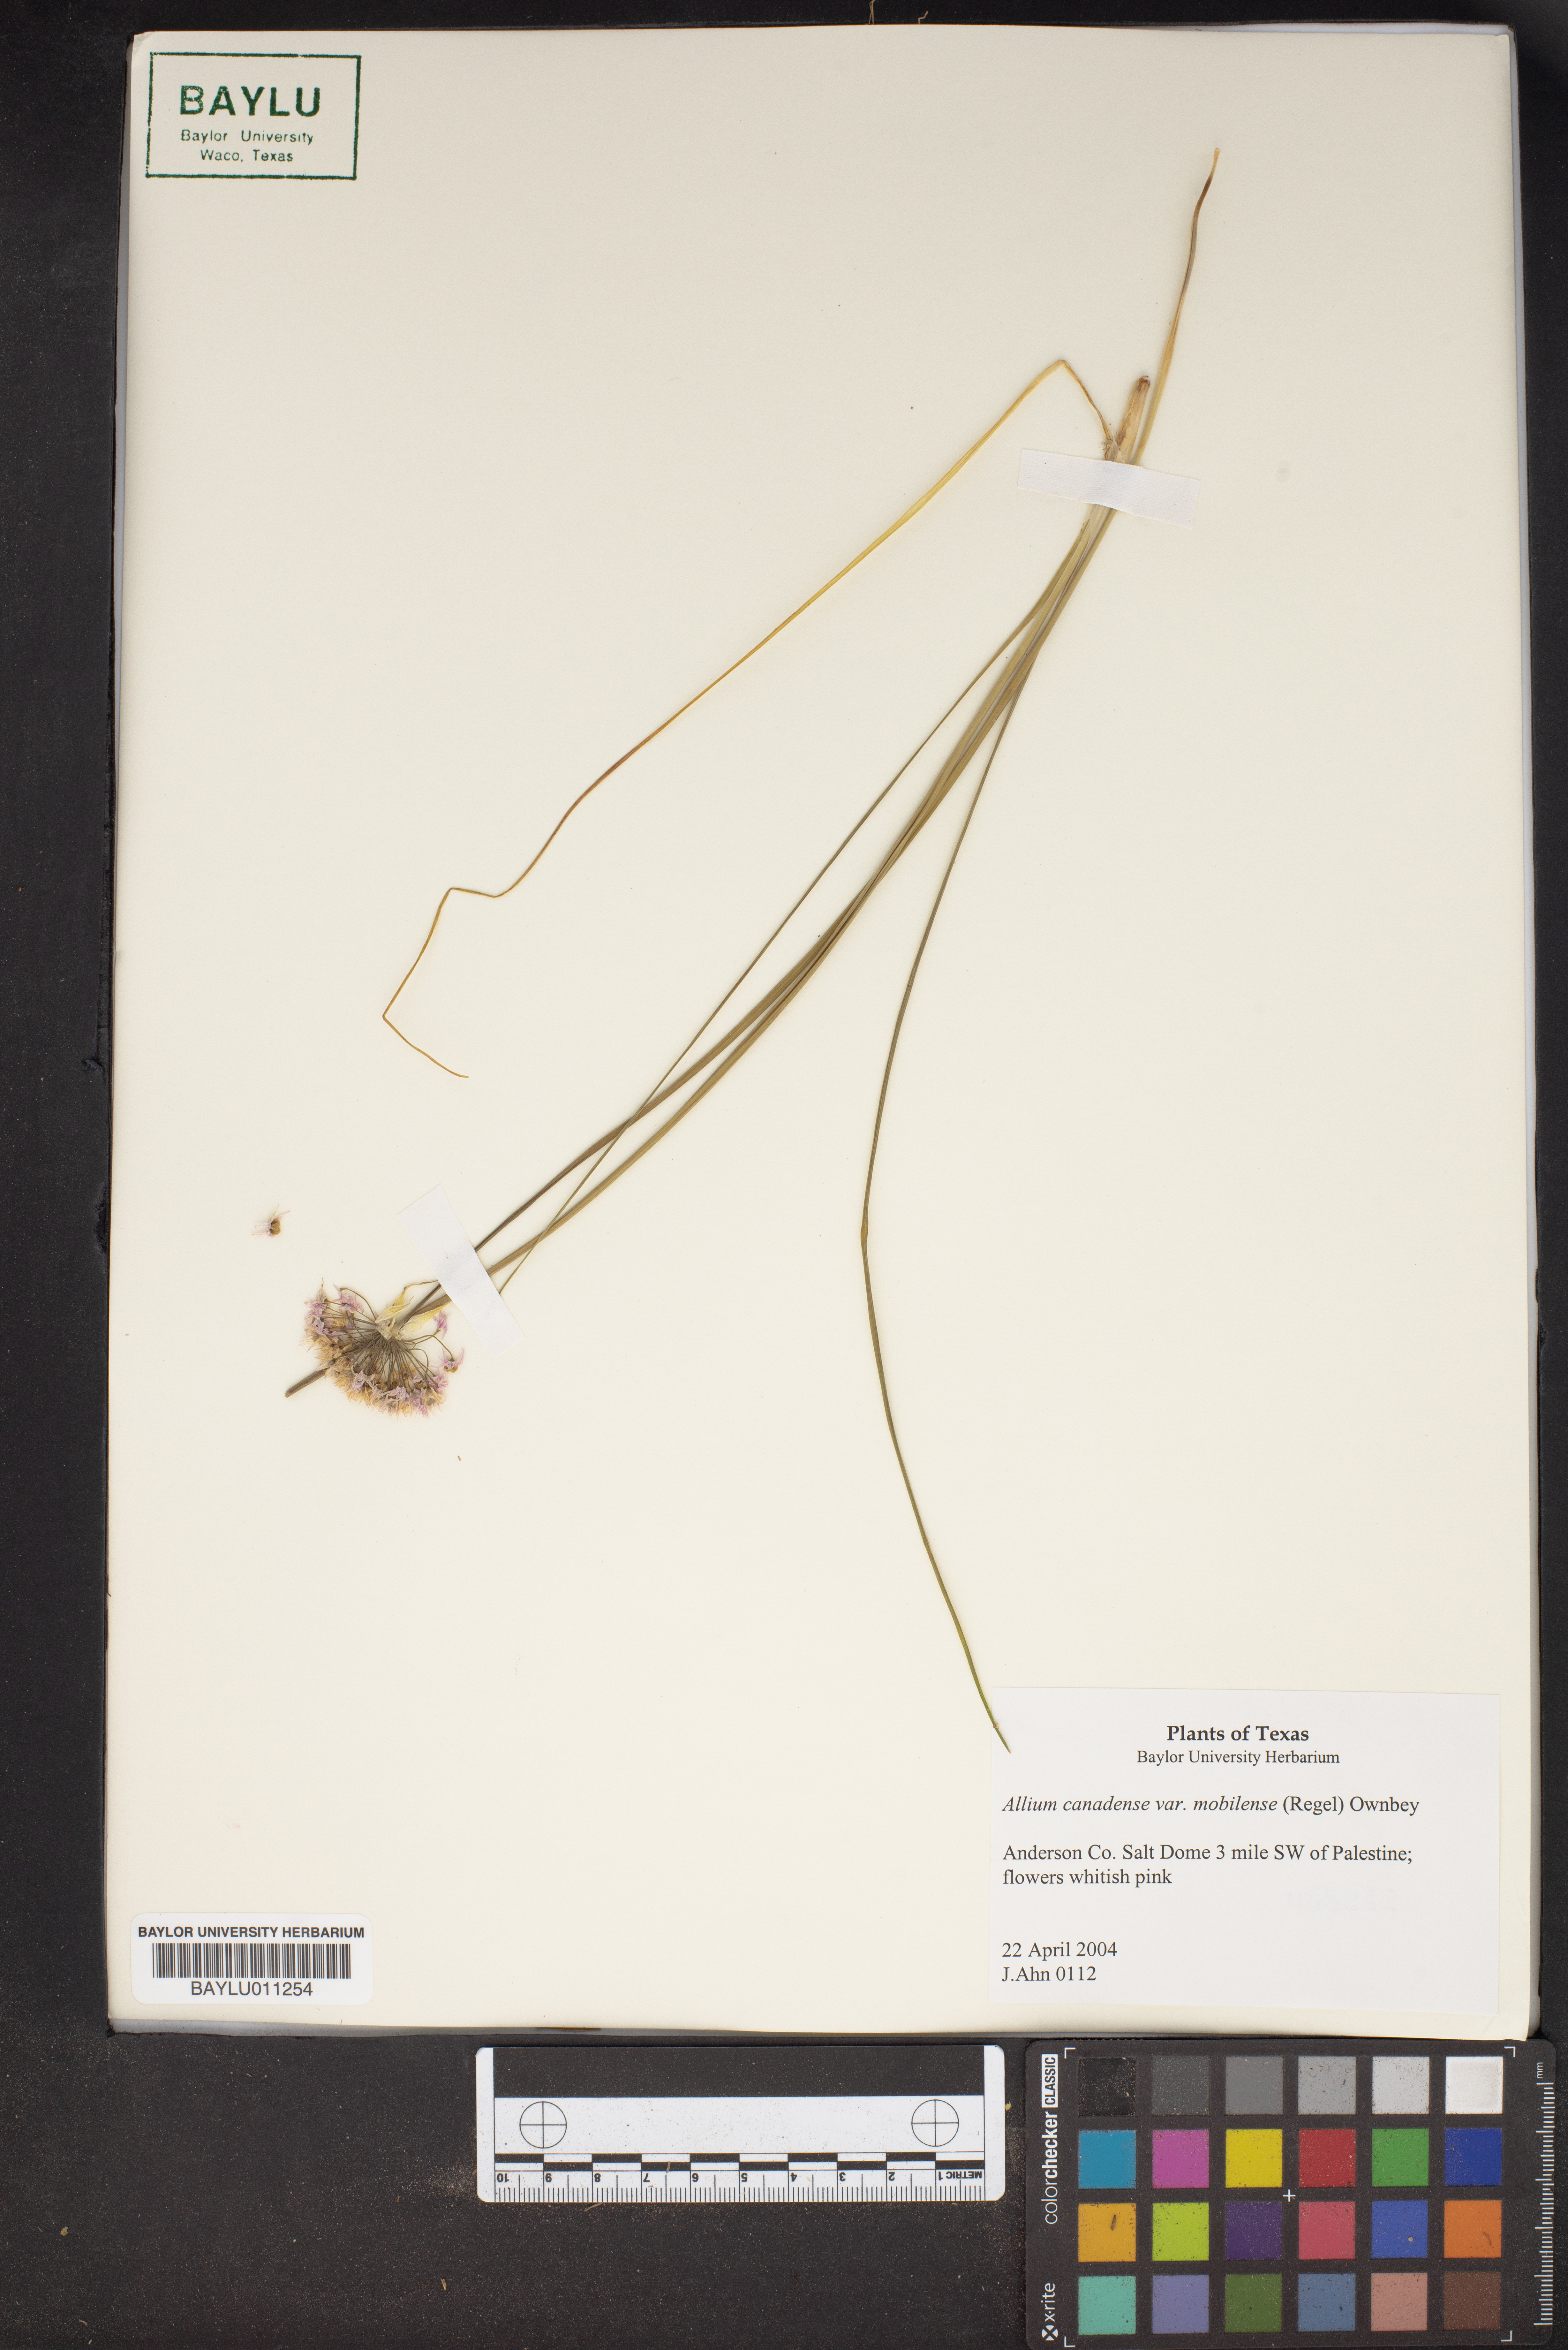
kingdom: Plantae
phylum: Tracheophyta
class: Liliopsida
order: Asparagales
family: Amaryllidaceae
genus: Allium
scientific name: Allium canadense
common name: Meadow garlic
